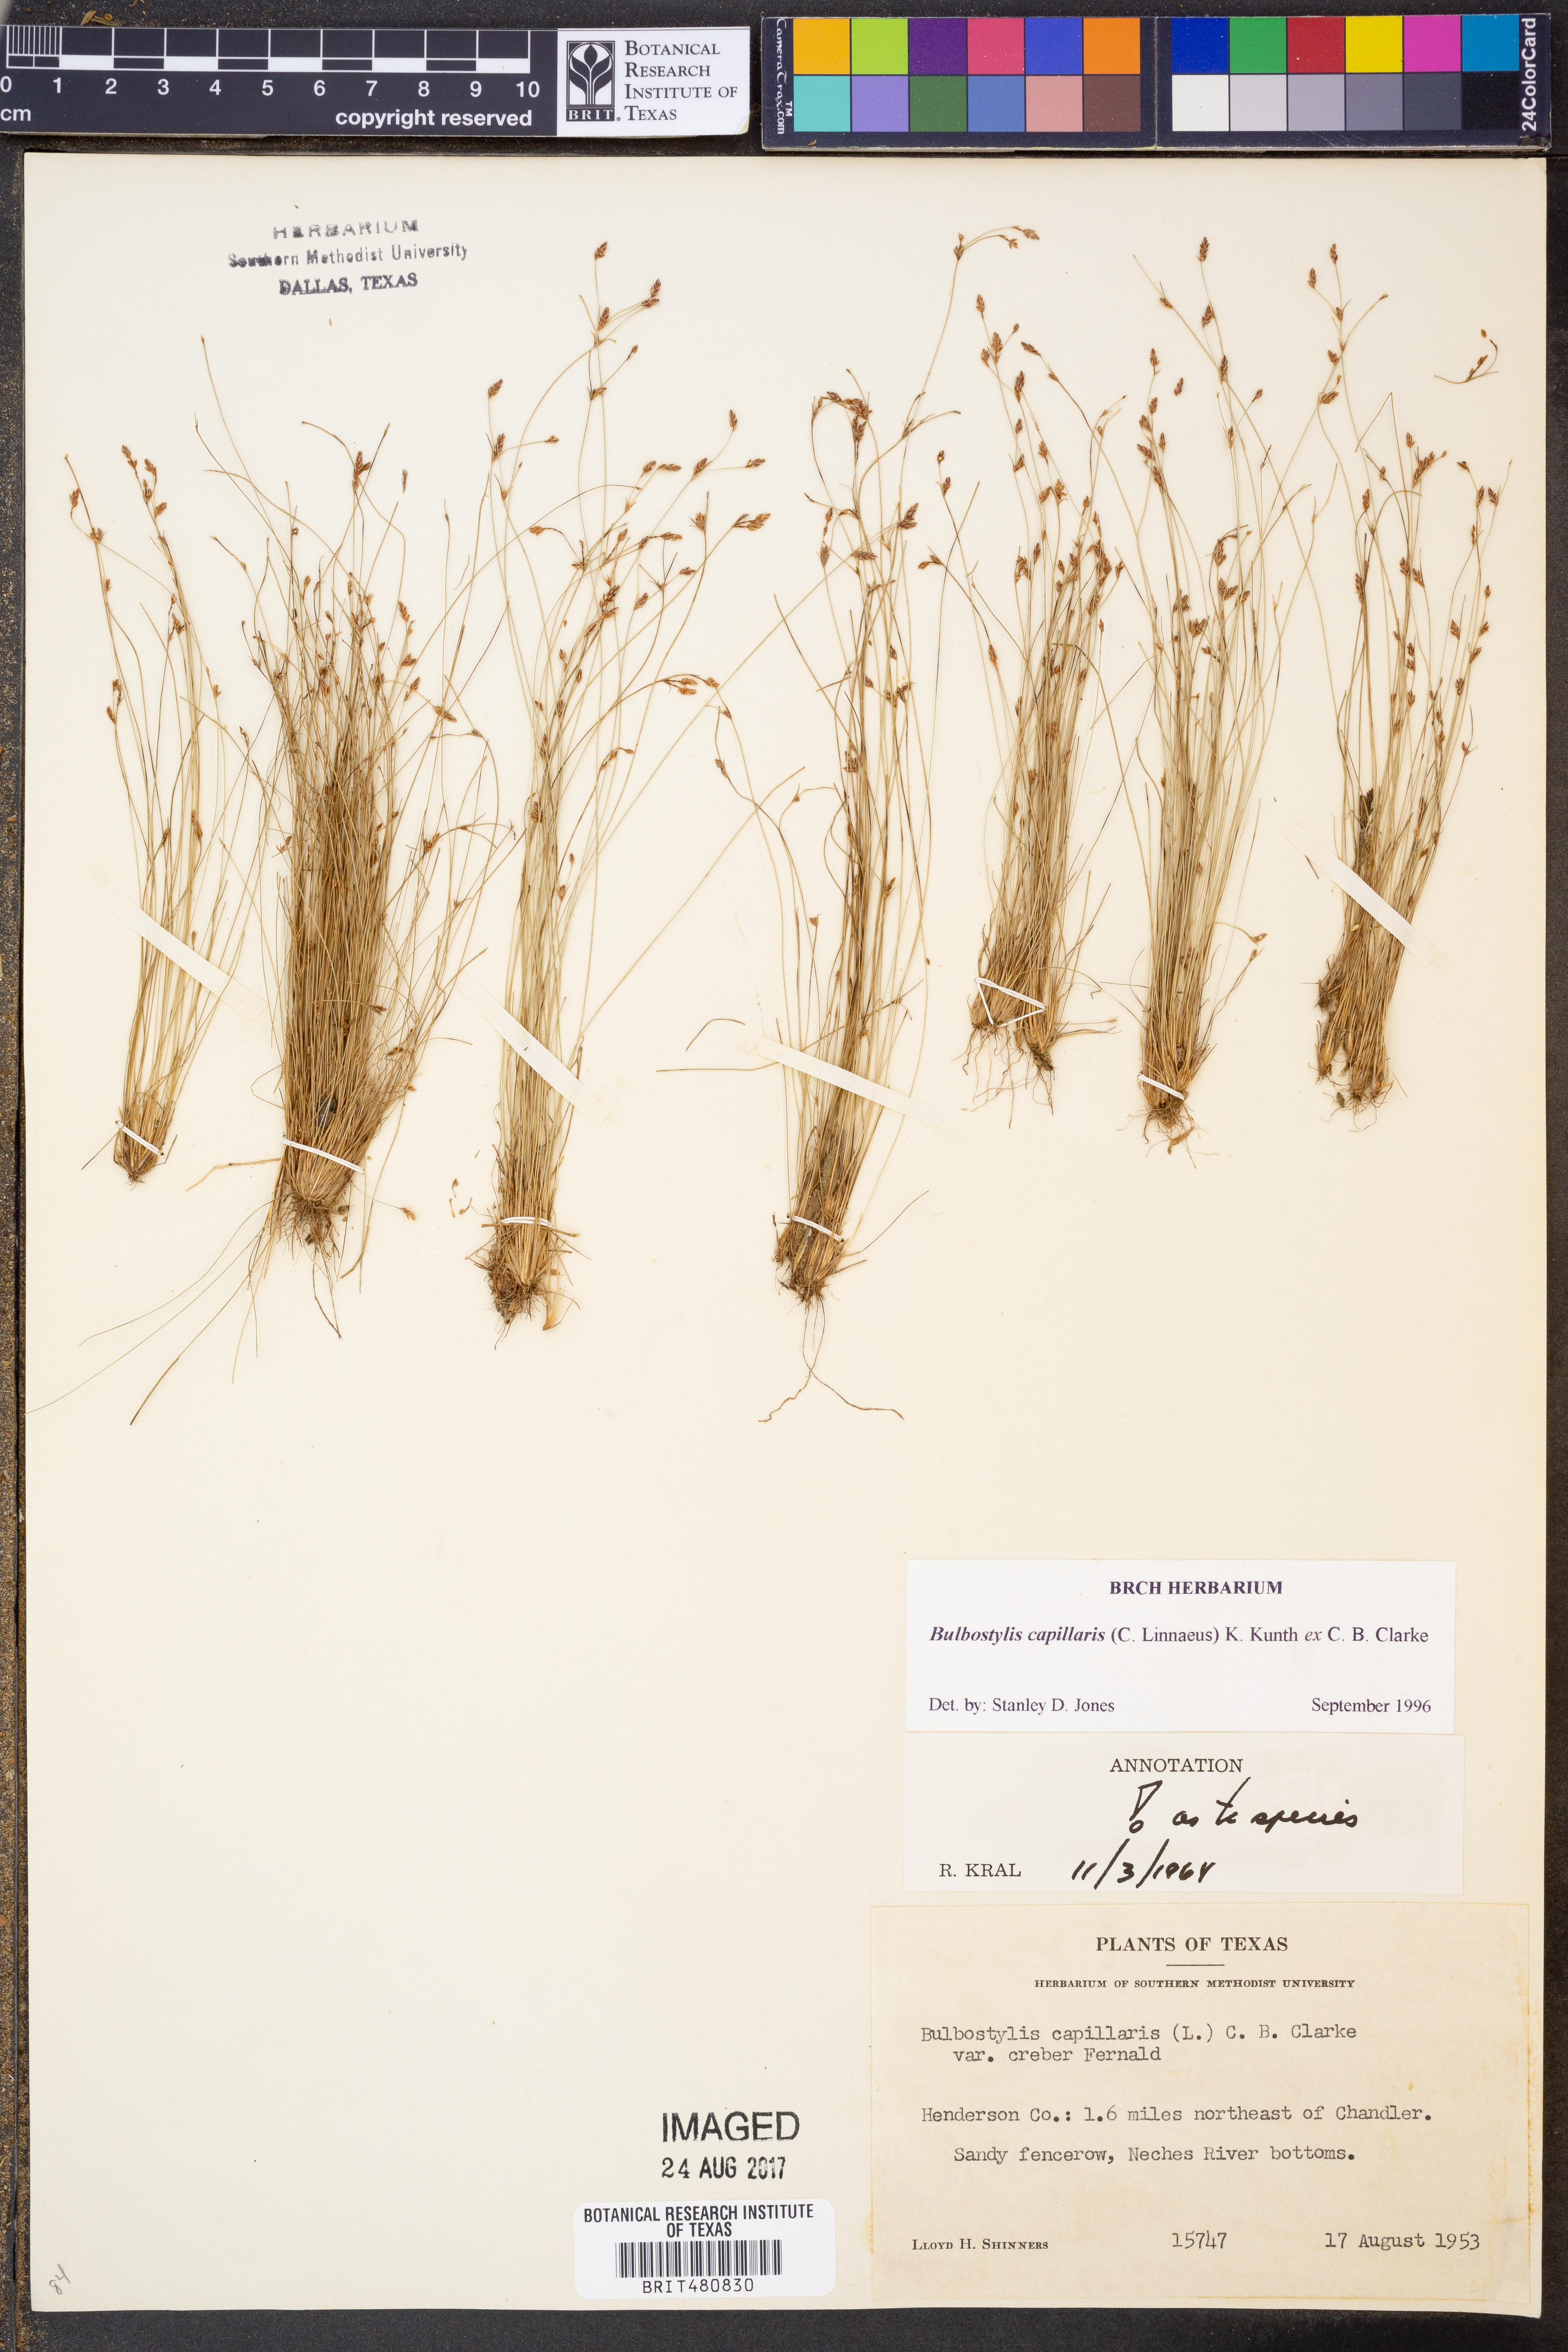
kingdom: Plantae
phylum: Tracheophyta
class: Liliopsida
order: Poales
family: Cyperaceae
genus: Bulbostylis
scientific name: Bulbostylis capillaris
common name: Densetuft hairsedge
